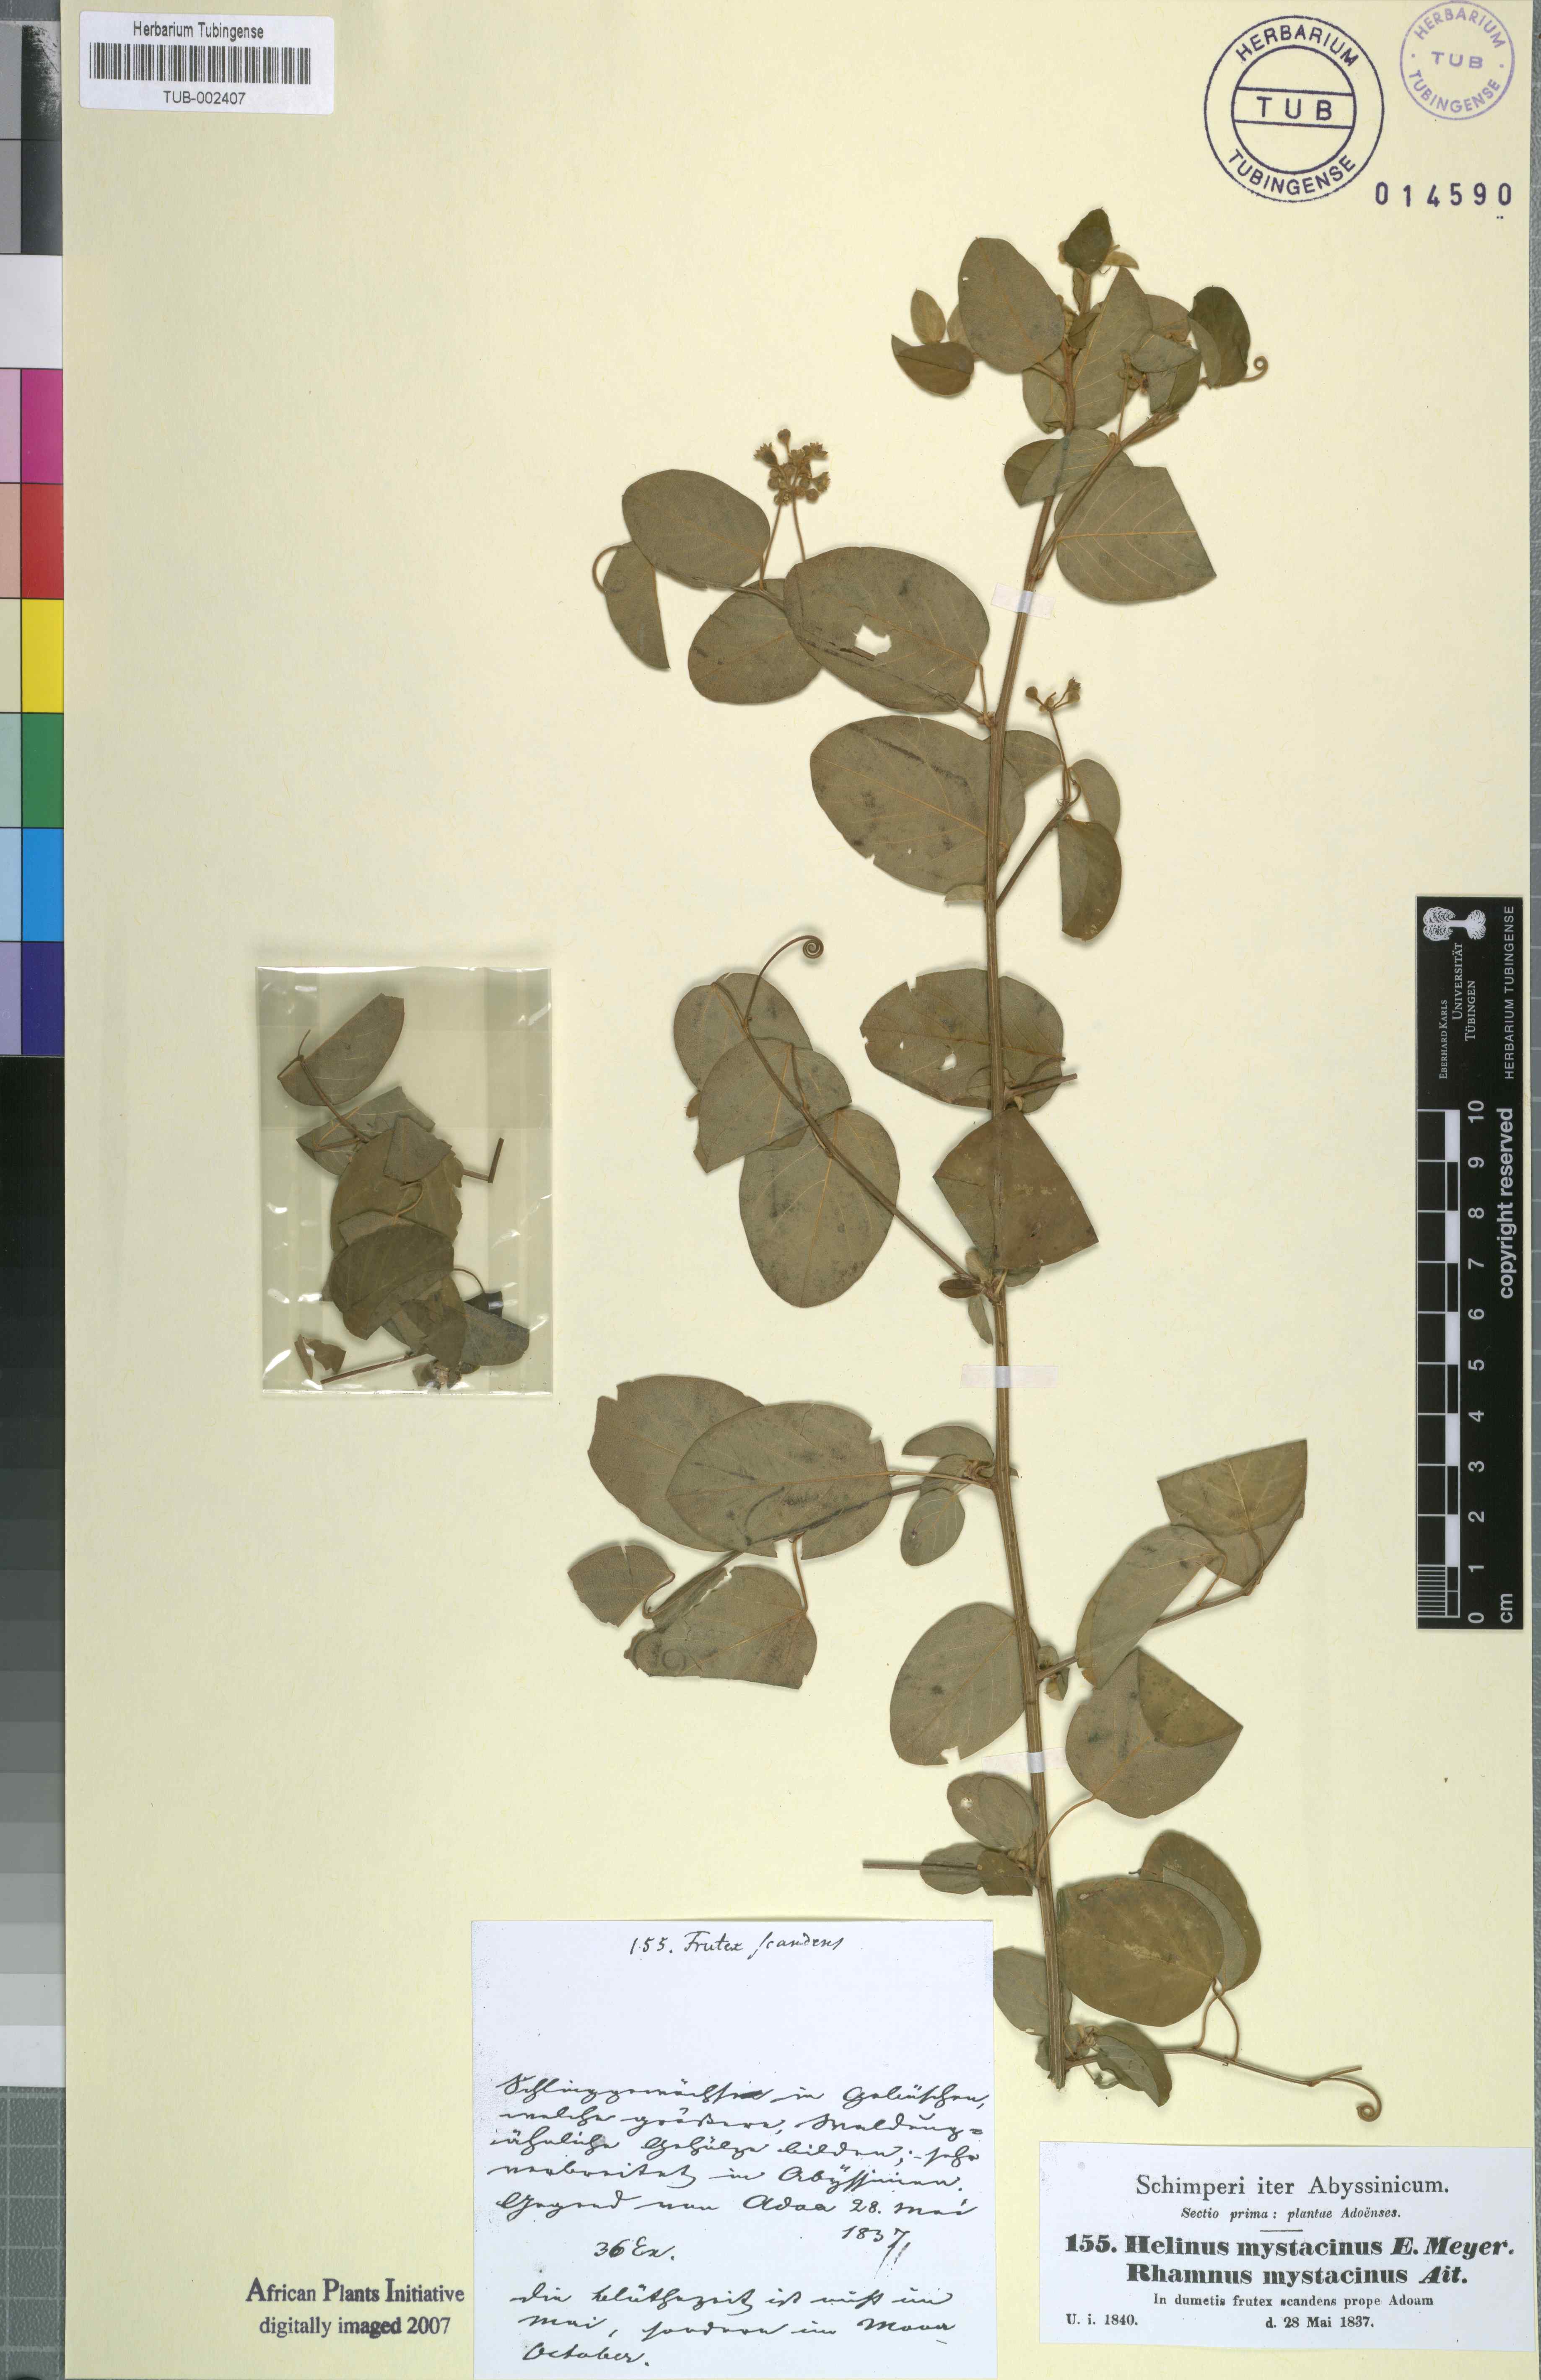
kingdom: Plantae
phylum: Tracheophyta
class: Magnoliopsida
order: Rosales
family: Rhamnaceae
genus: Helinus
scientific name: Helinus mystacinus
